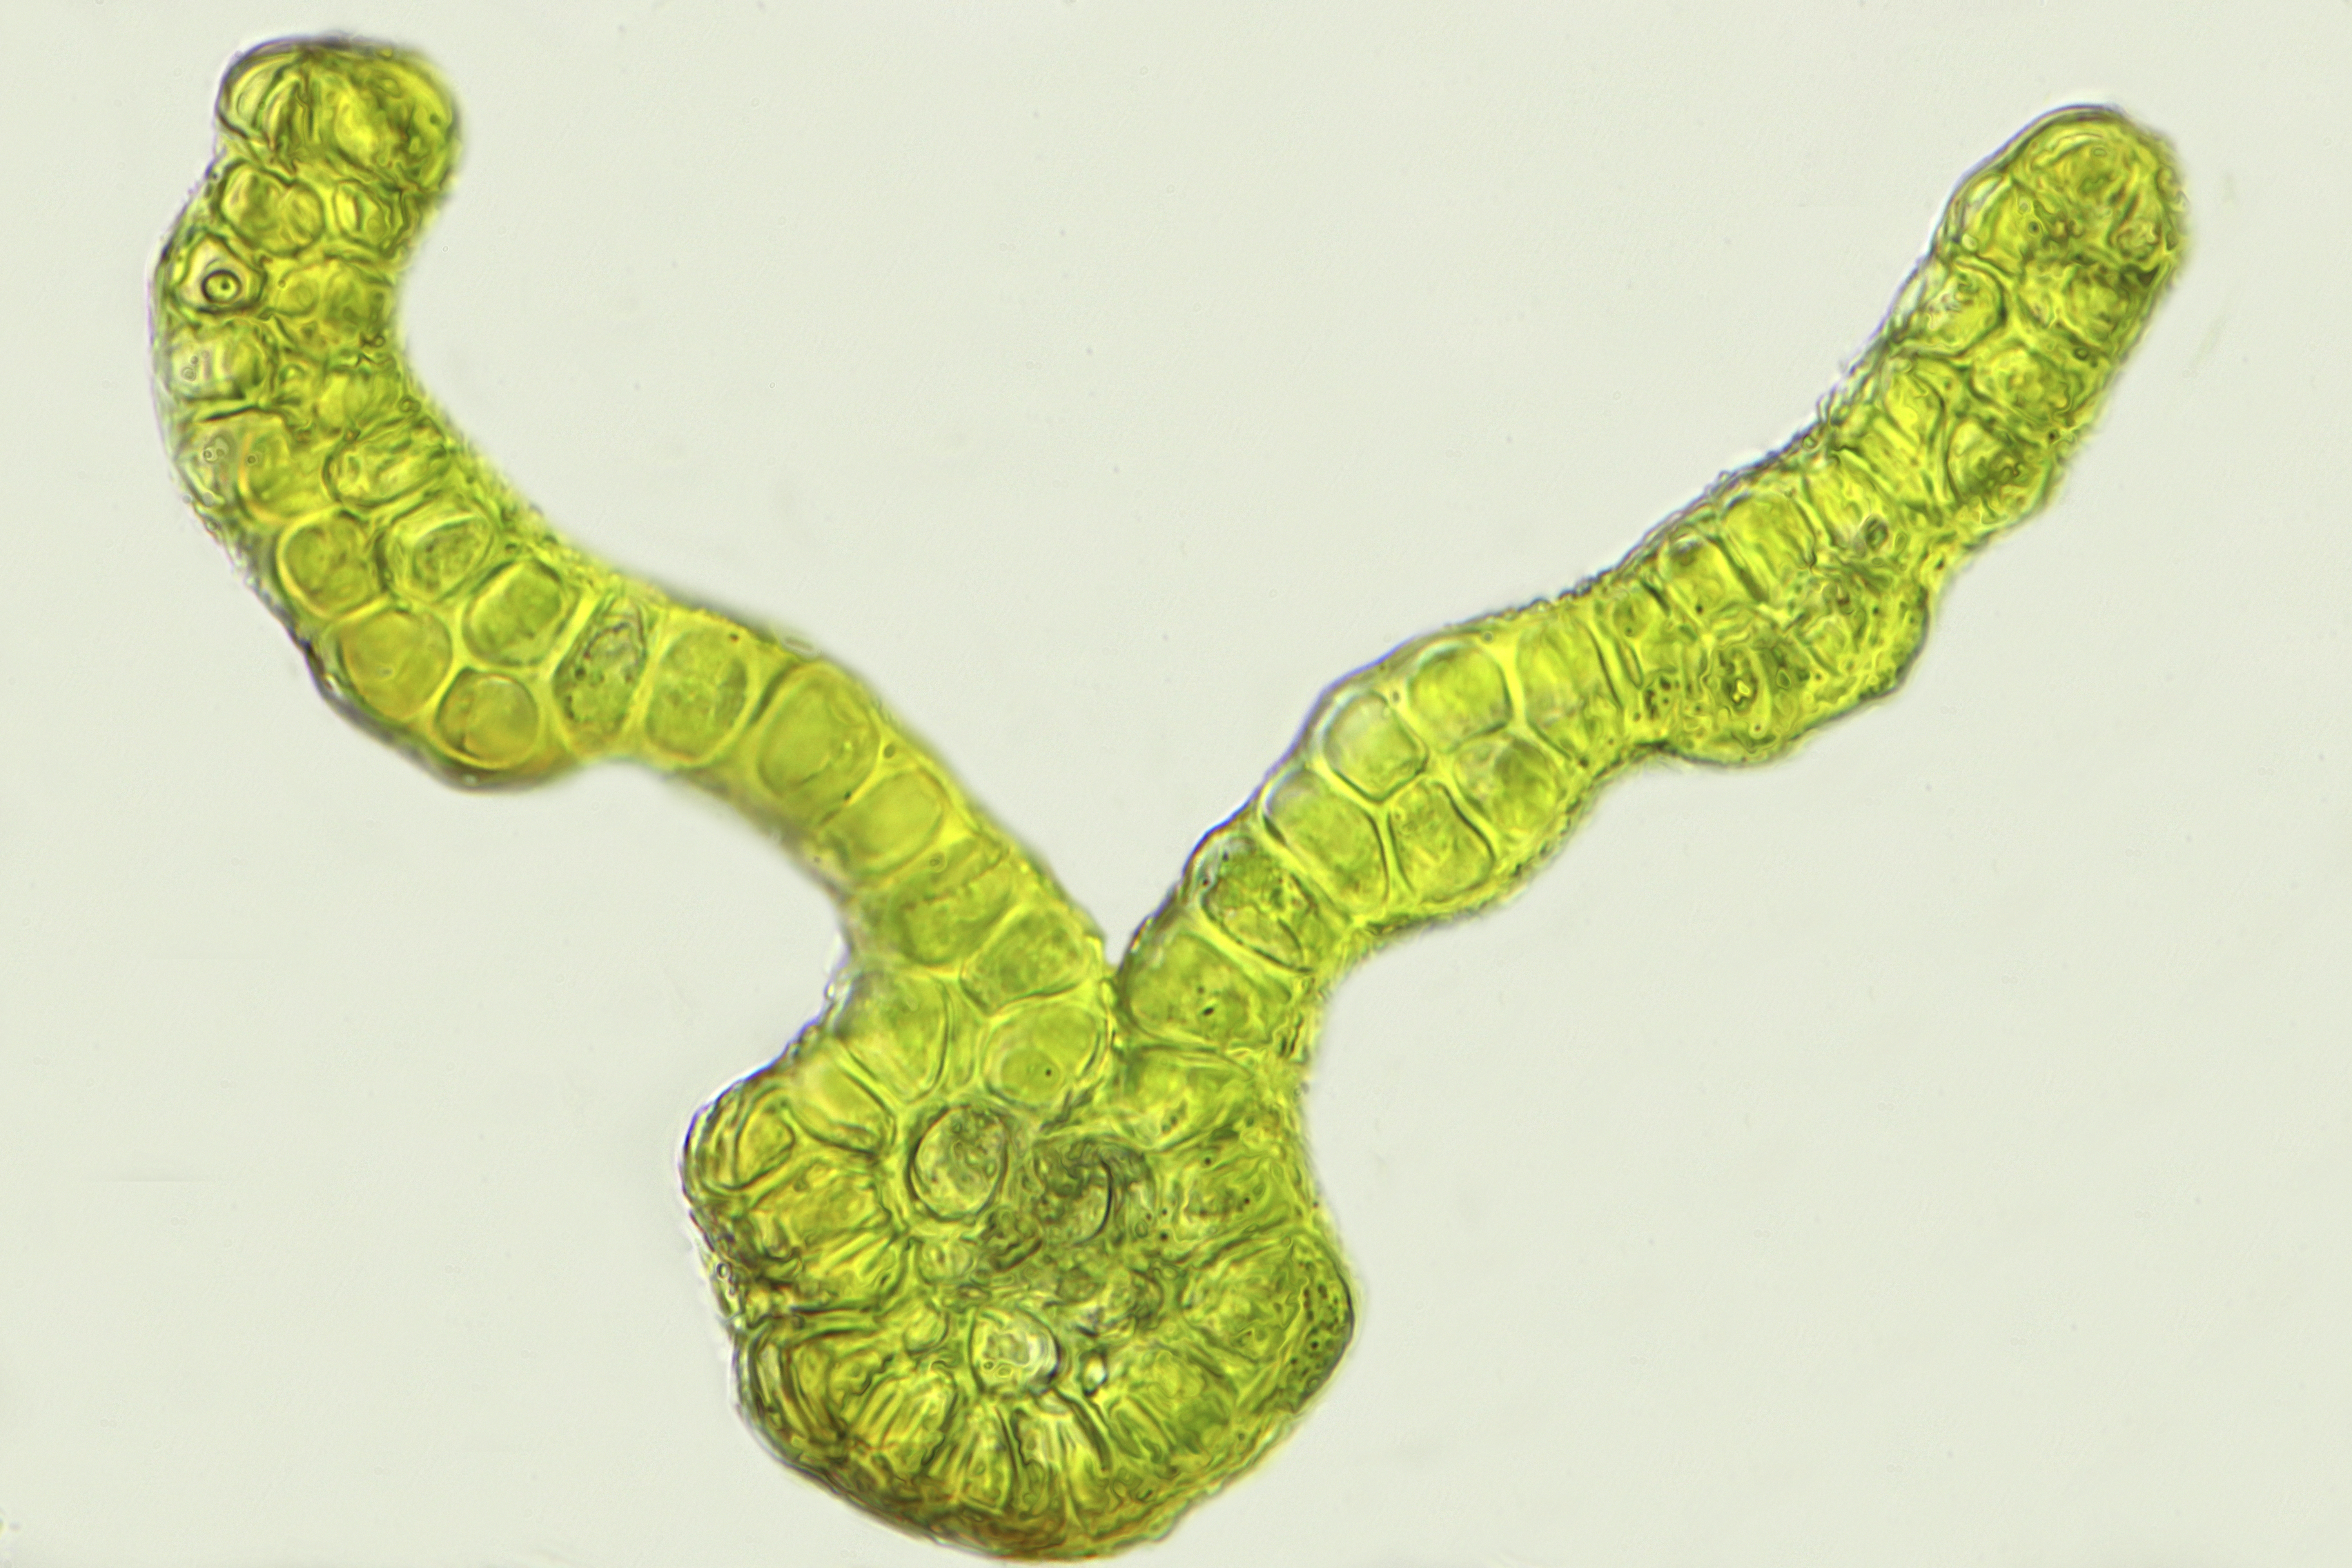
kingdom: Plantae
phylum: Bryophyta
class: Bryopsida
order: Grimmiales
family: Grimmiaceae
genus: Grimmia
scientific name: Grimmia montana
